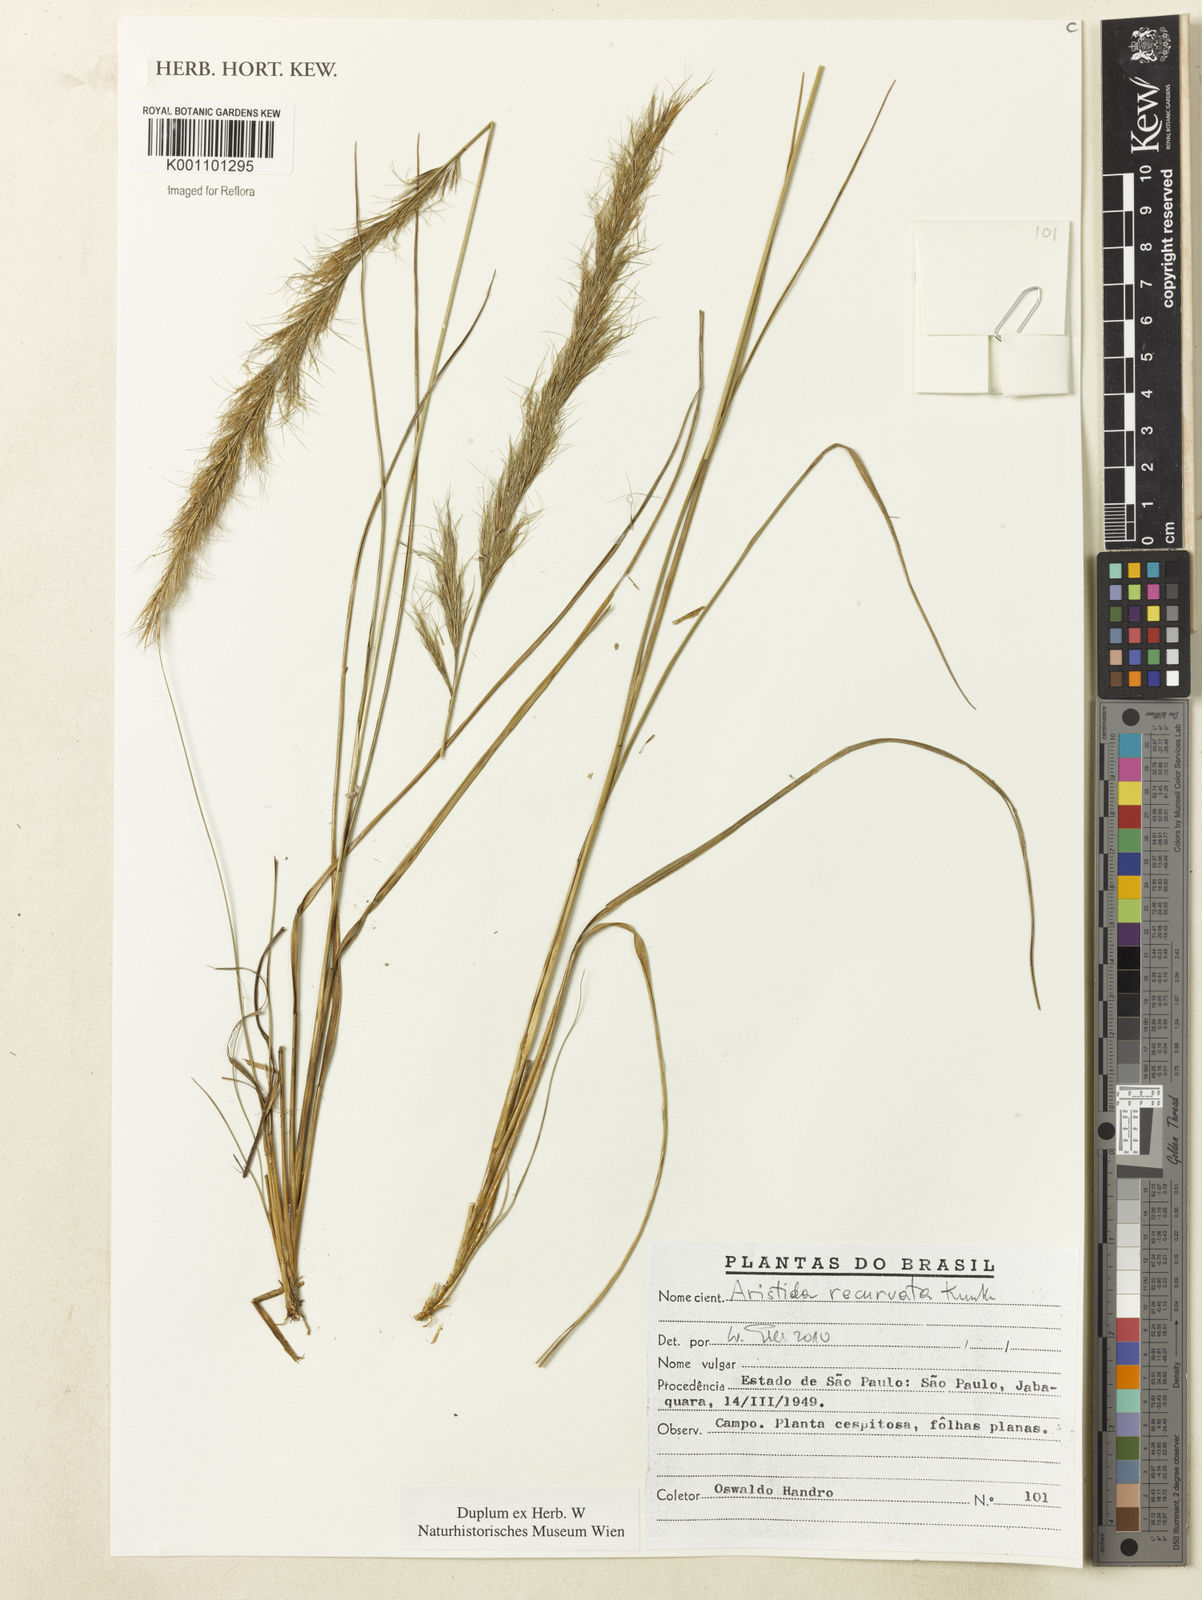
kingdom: Plantae
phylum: Tracheophyta
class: Liliopsida
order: Poales
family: Poaceae
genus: Aristida
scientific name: Aristida recurvata
